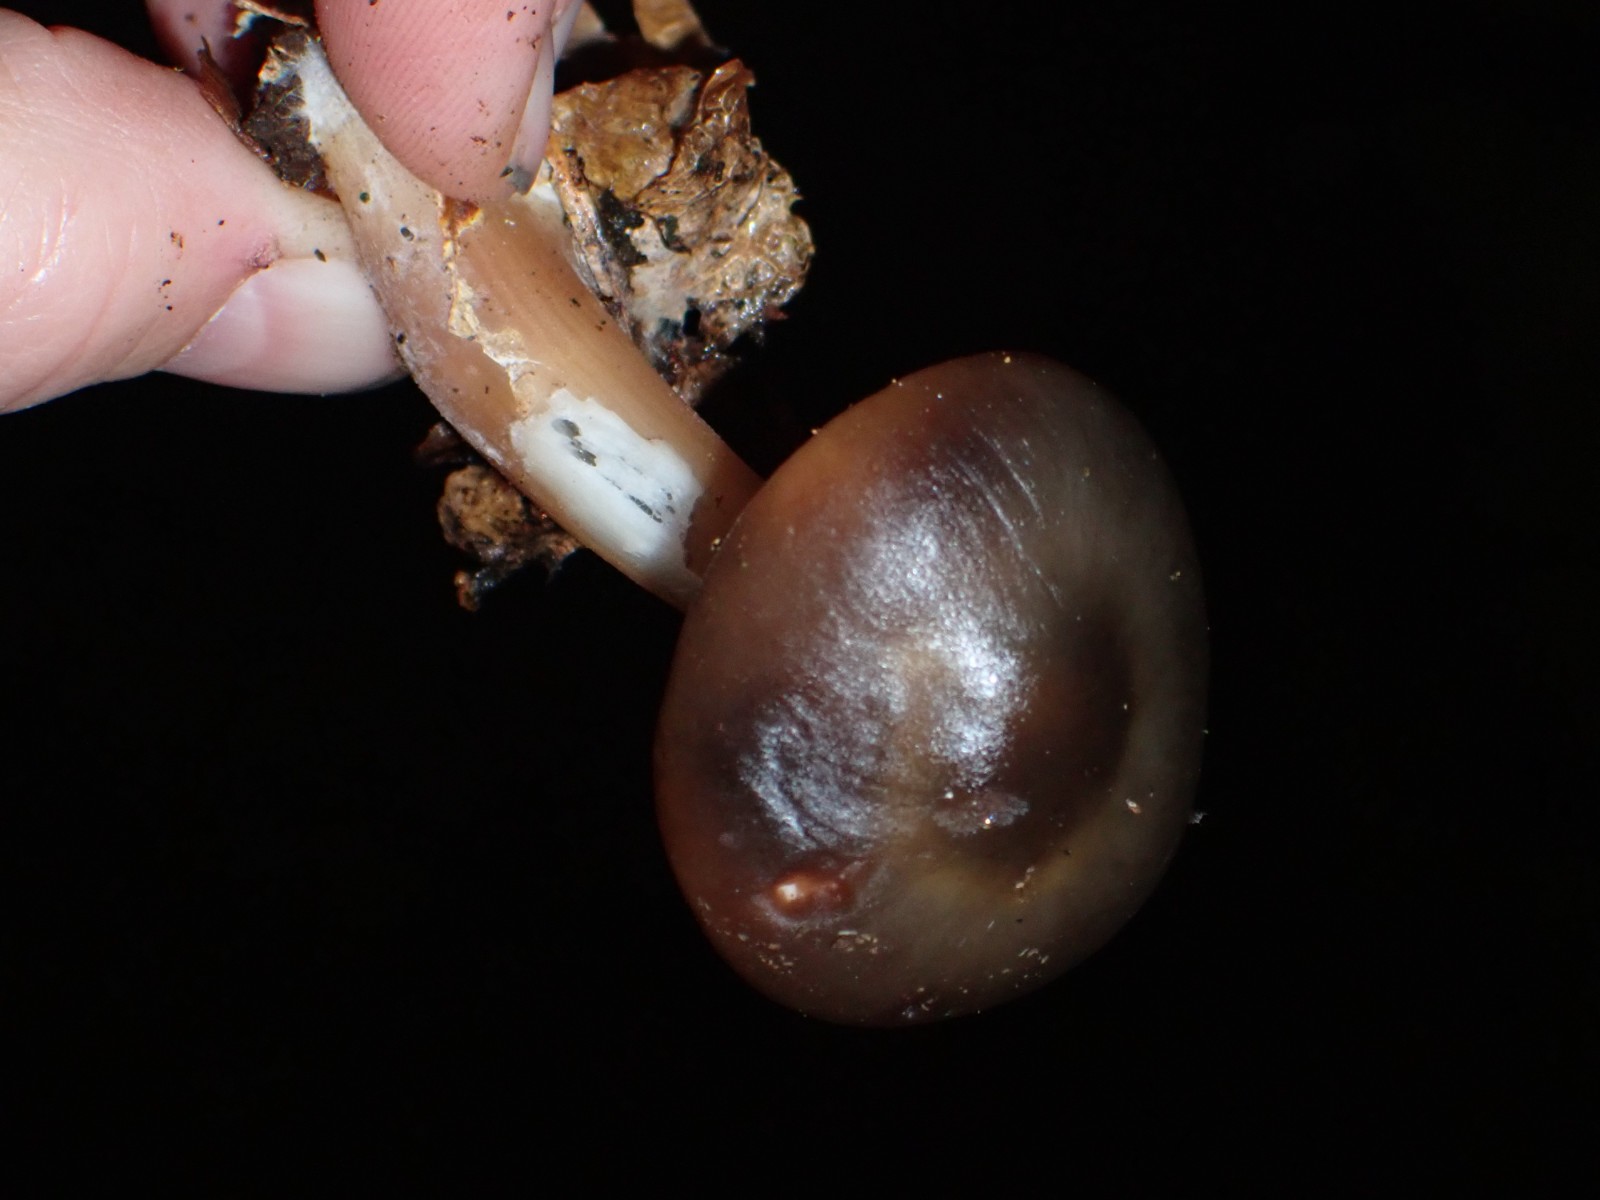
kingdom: Fungi
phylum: Basidiomycota
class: Agaricomycetes
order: Agaricales
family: Omphalotaceae
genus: Rhodocollybia
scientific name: Rhodocollybia asema
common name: horngrå fladhat
